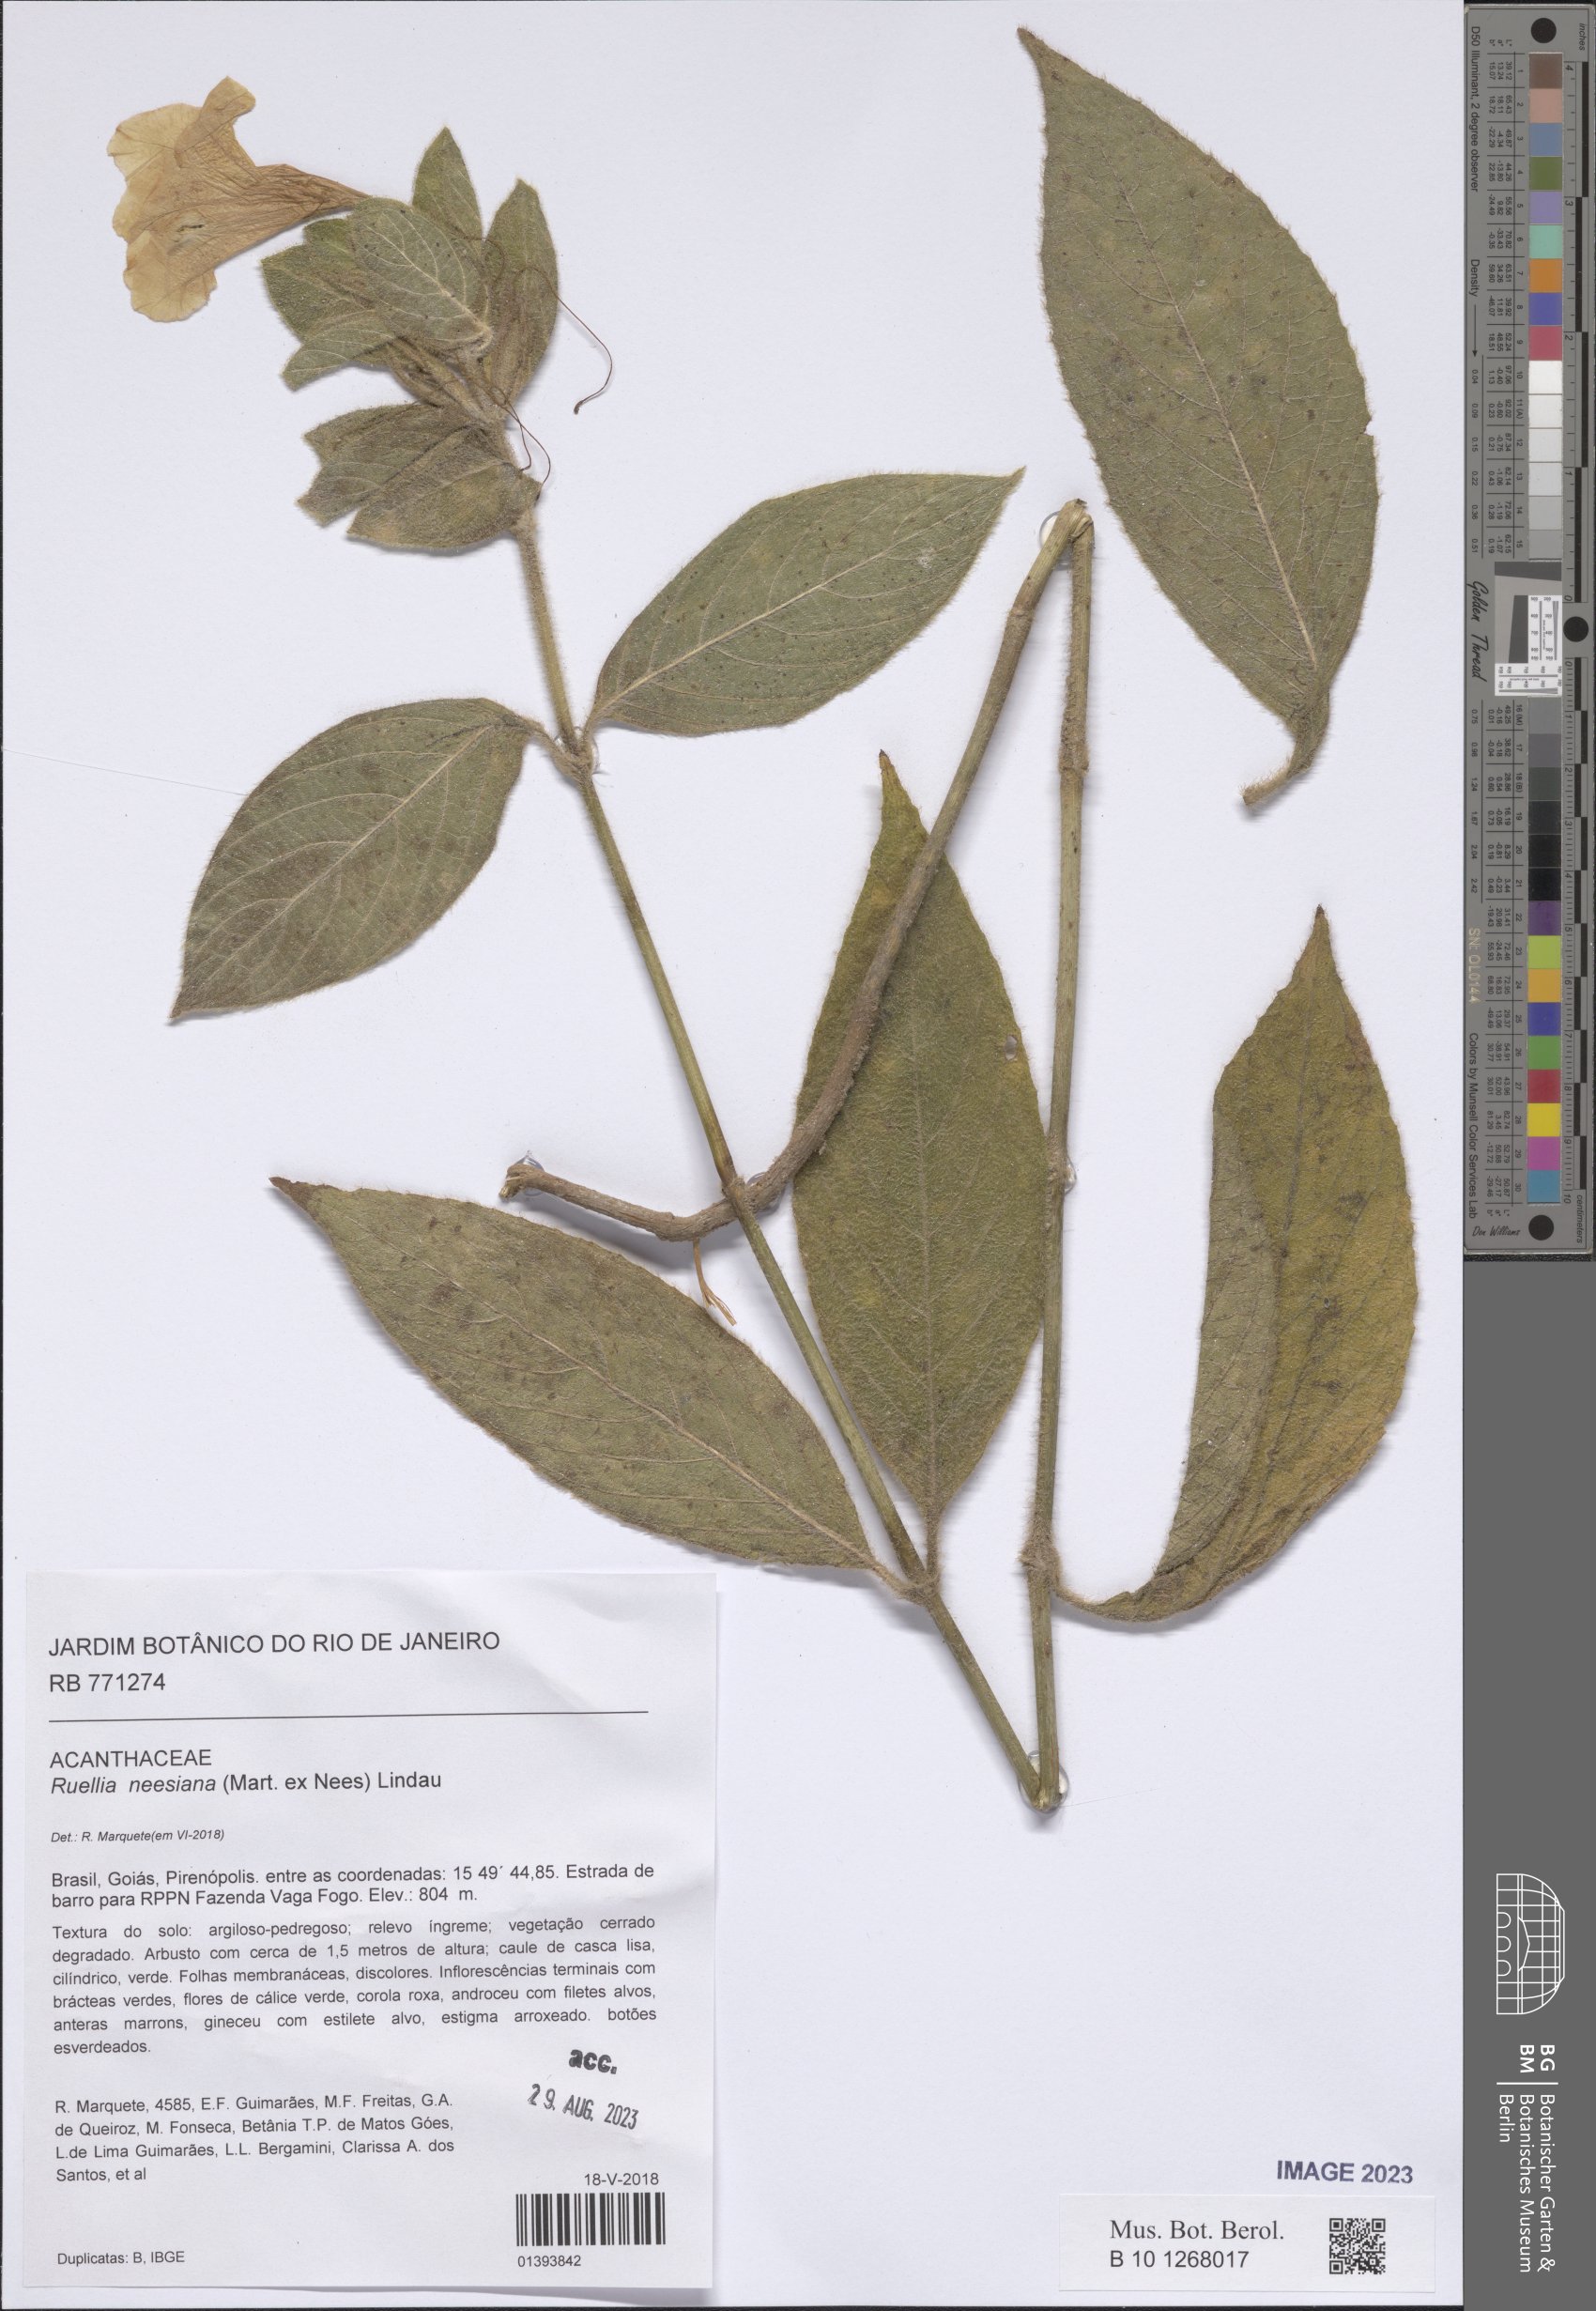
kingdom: Plantae
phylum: Tracheophyta
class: Magnoliopsida
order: Lamiales
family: Acanthaceae
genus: Ruellia
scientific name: Ruellia neesiana
